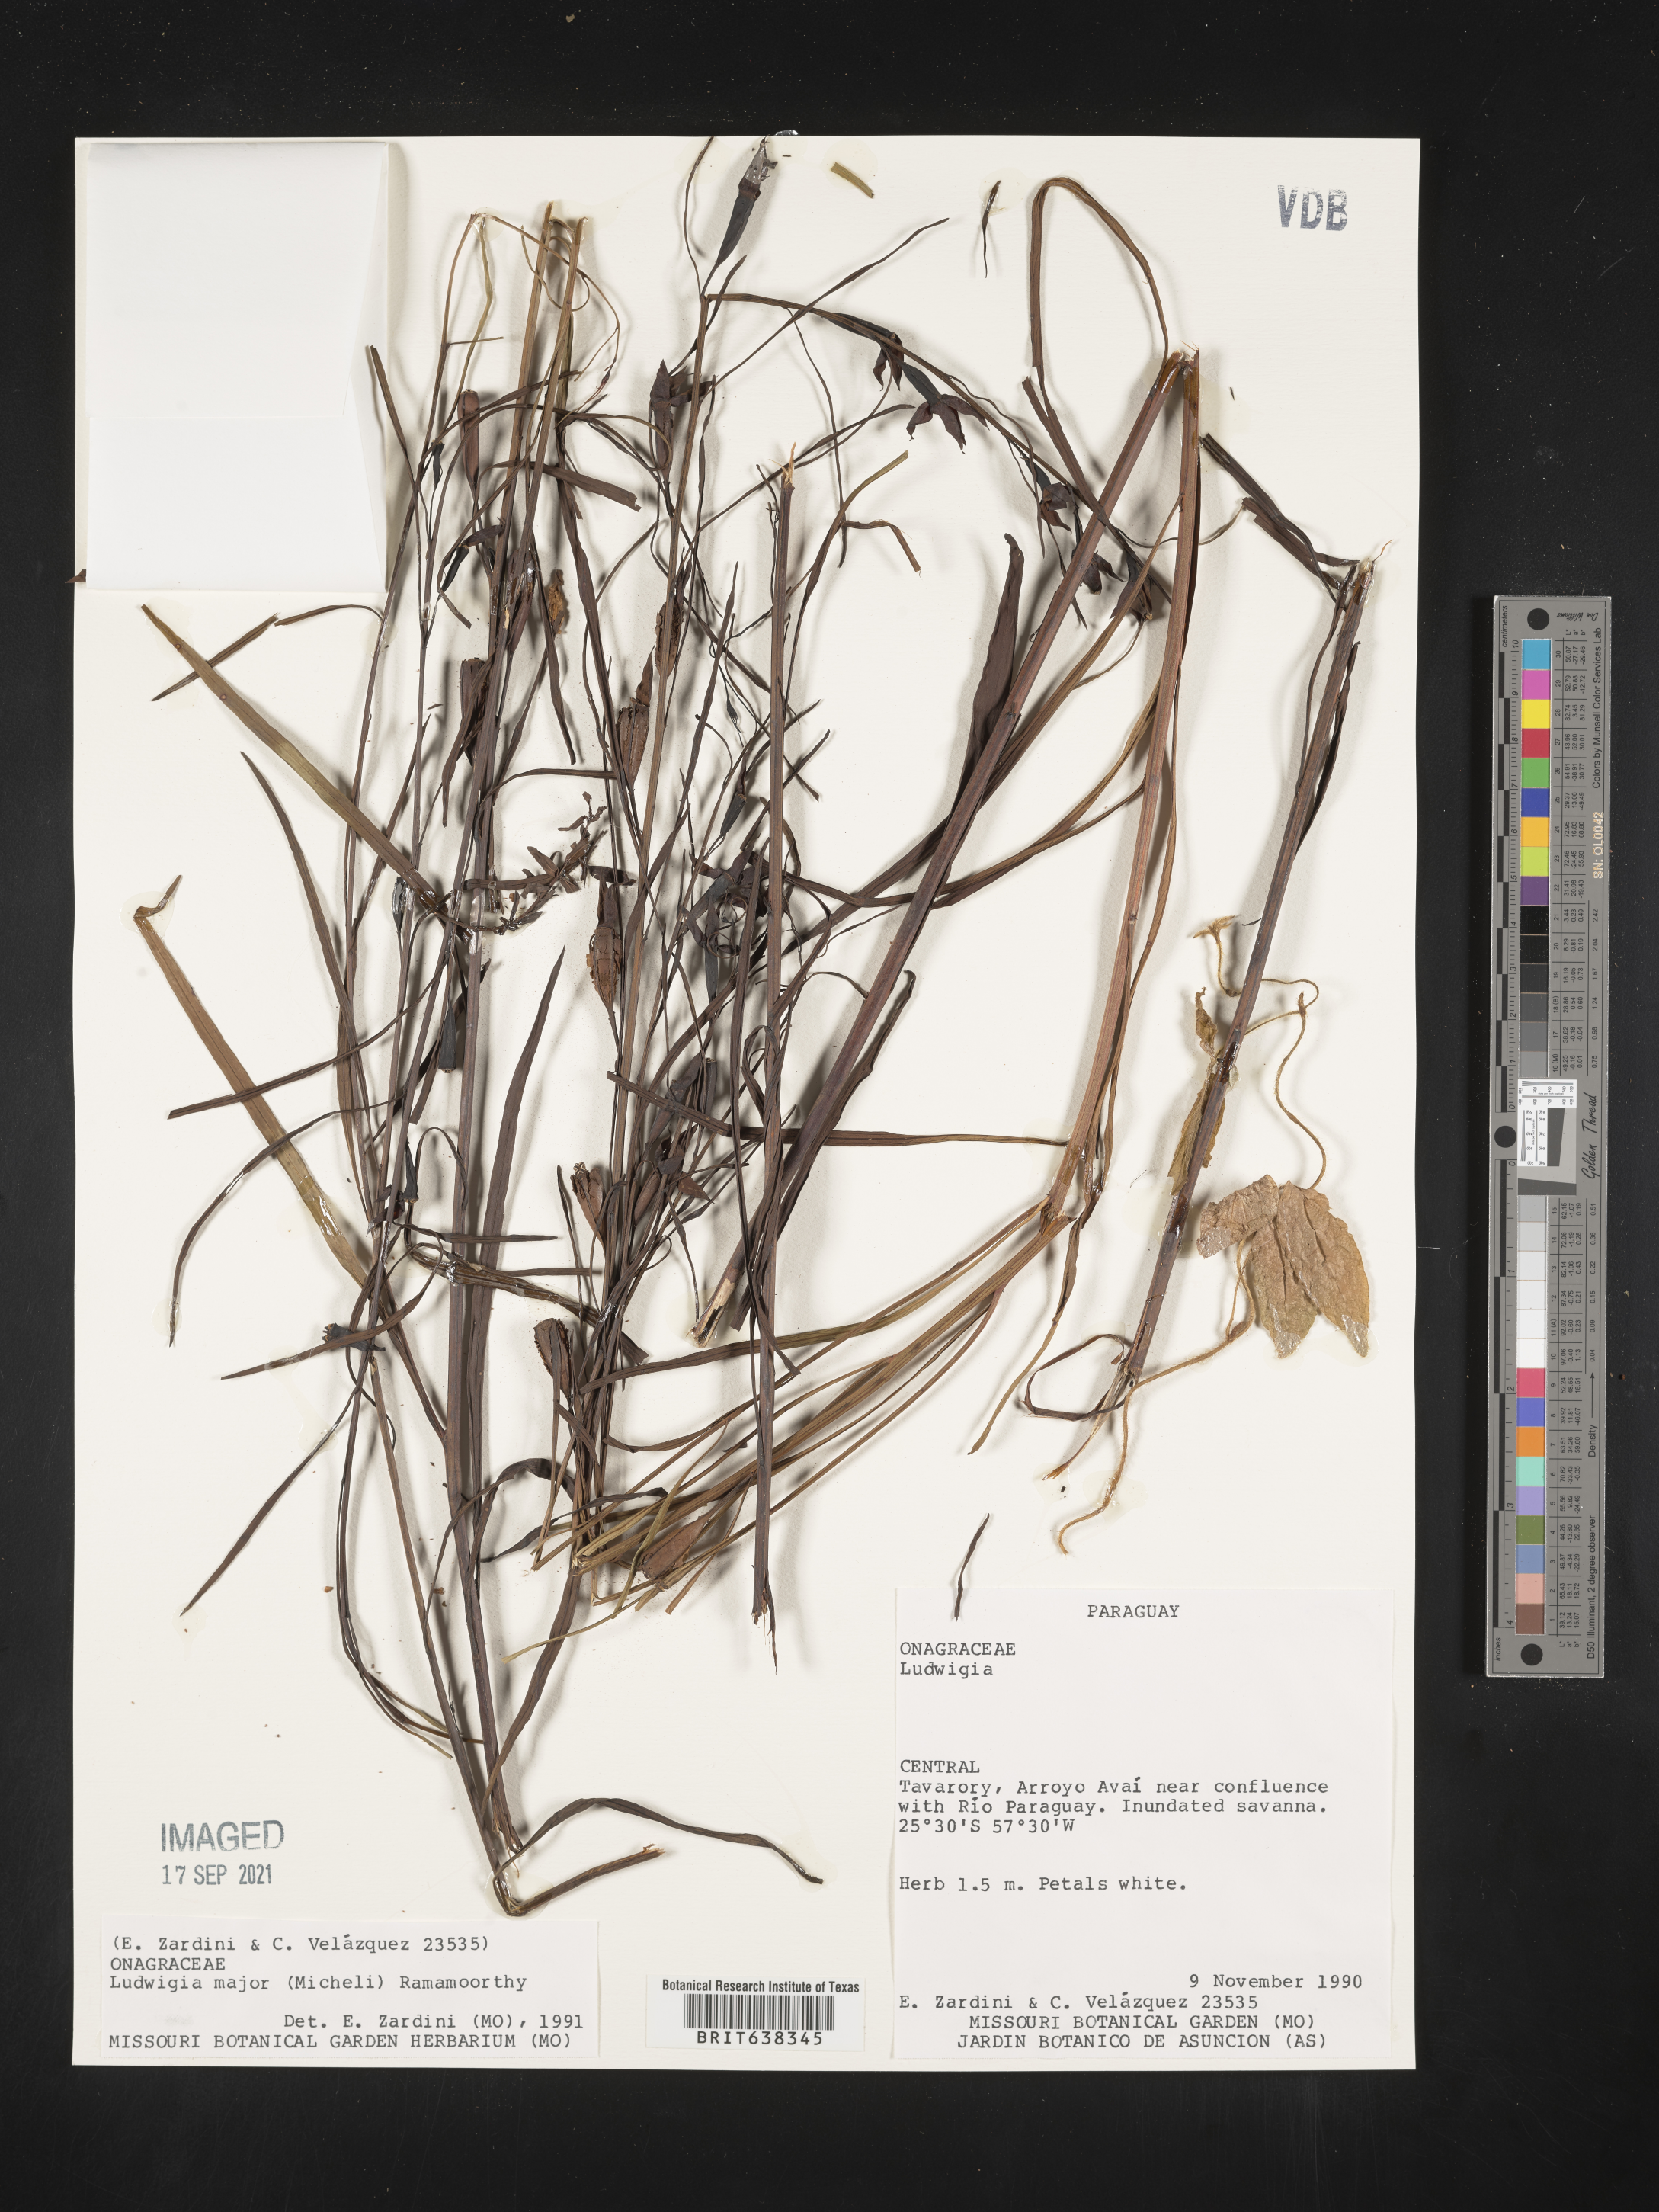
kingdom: Plantae
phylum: Tracheophyta
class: Magnoliopsida
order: Myrtales
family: Onagraceae
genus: Ludwigia
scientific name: Ludwigia
